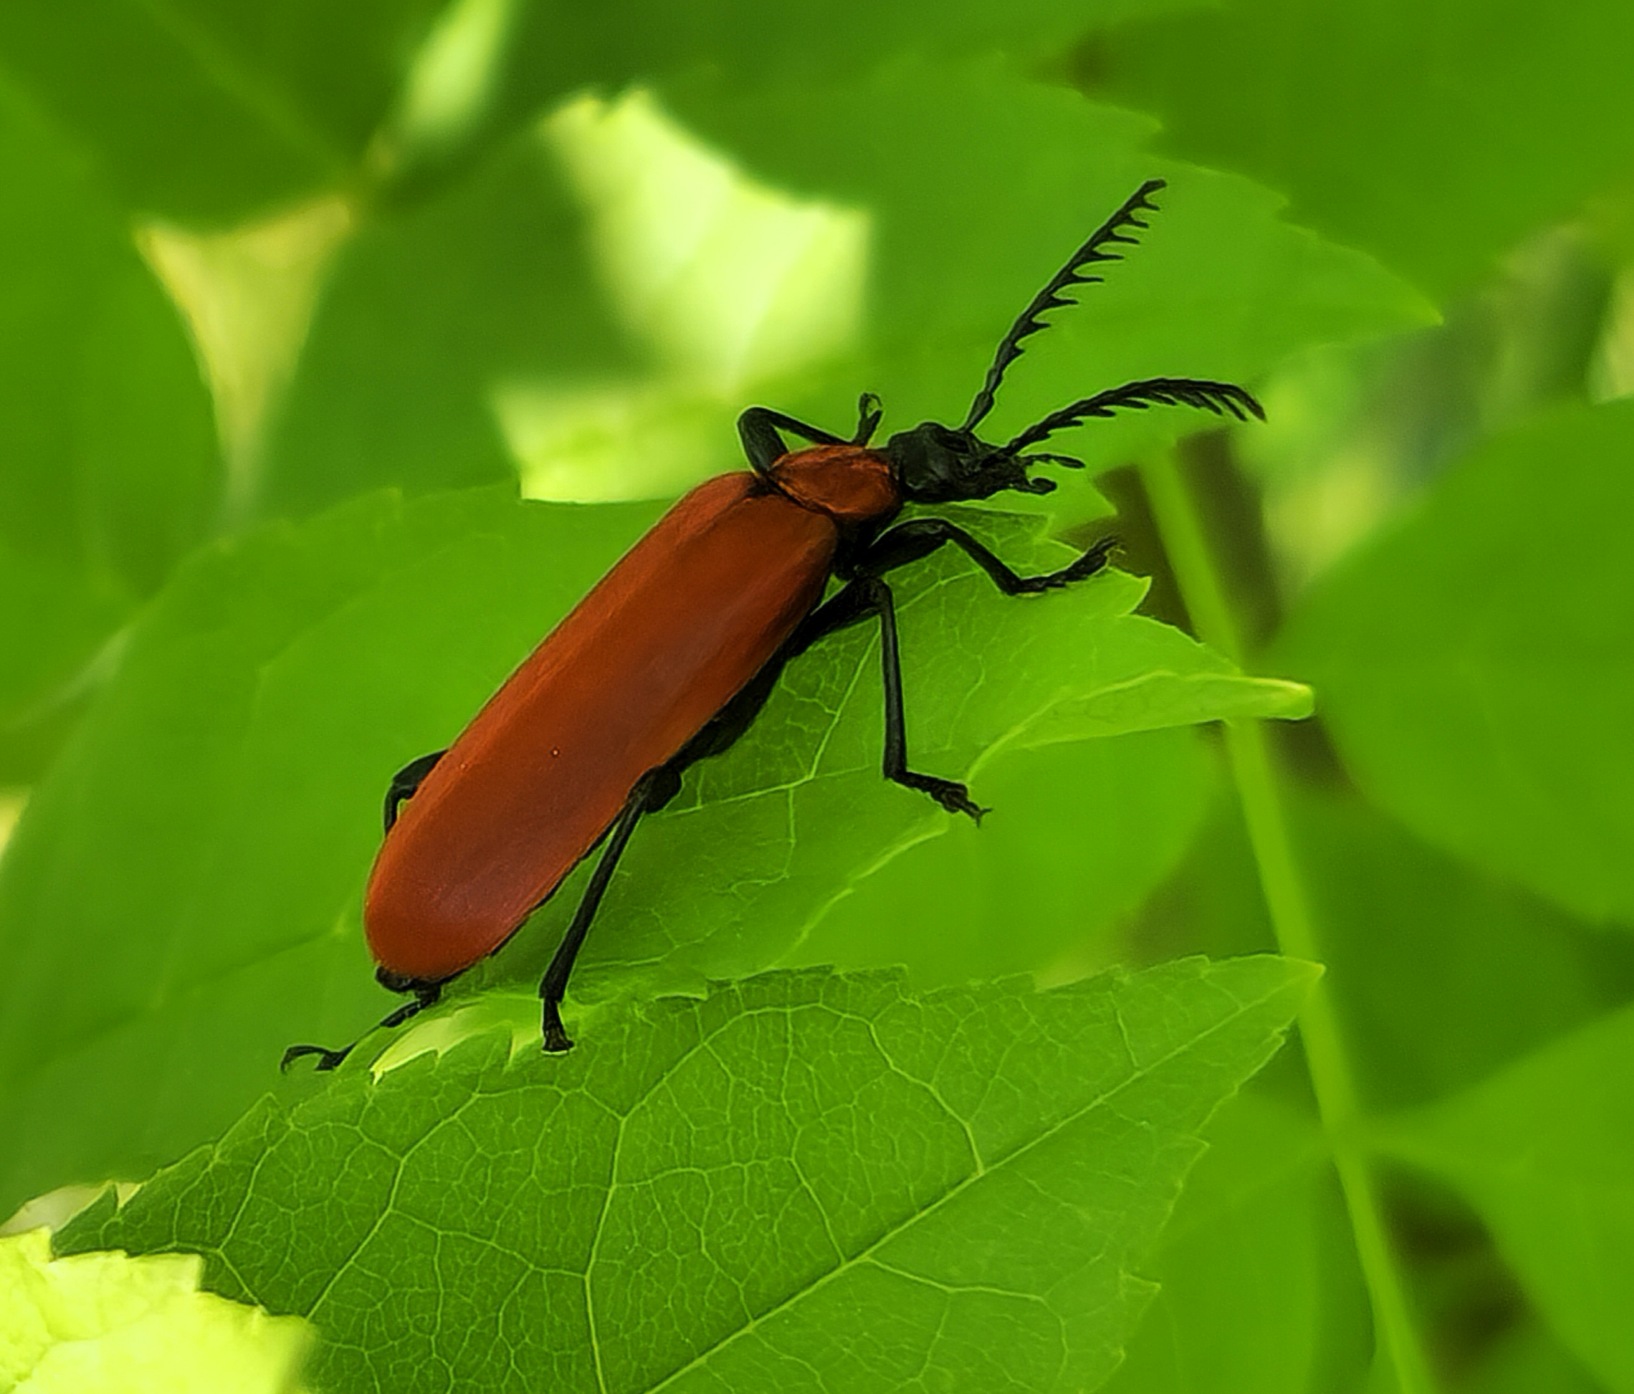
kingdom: Animalia
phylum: Arthropoda
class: Insecta
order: Coleoptera
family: Pyrochroidae
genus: Pyrochroa
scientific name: Pyrochroa coccinea
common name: Sorthovedet kardinalbille
